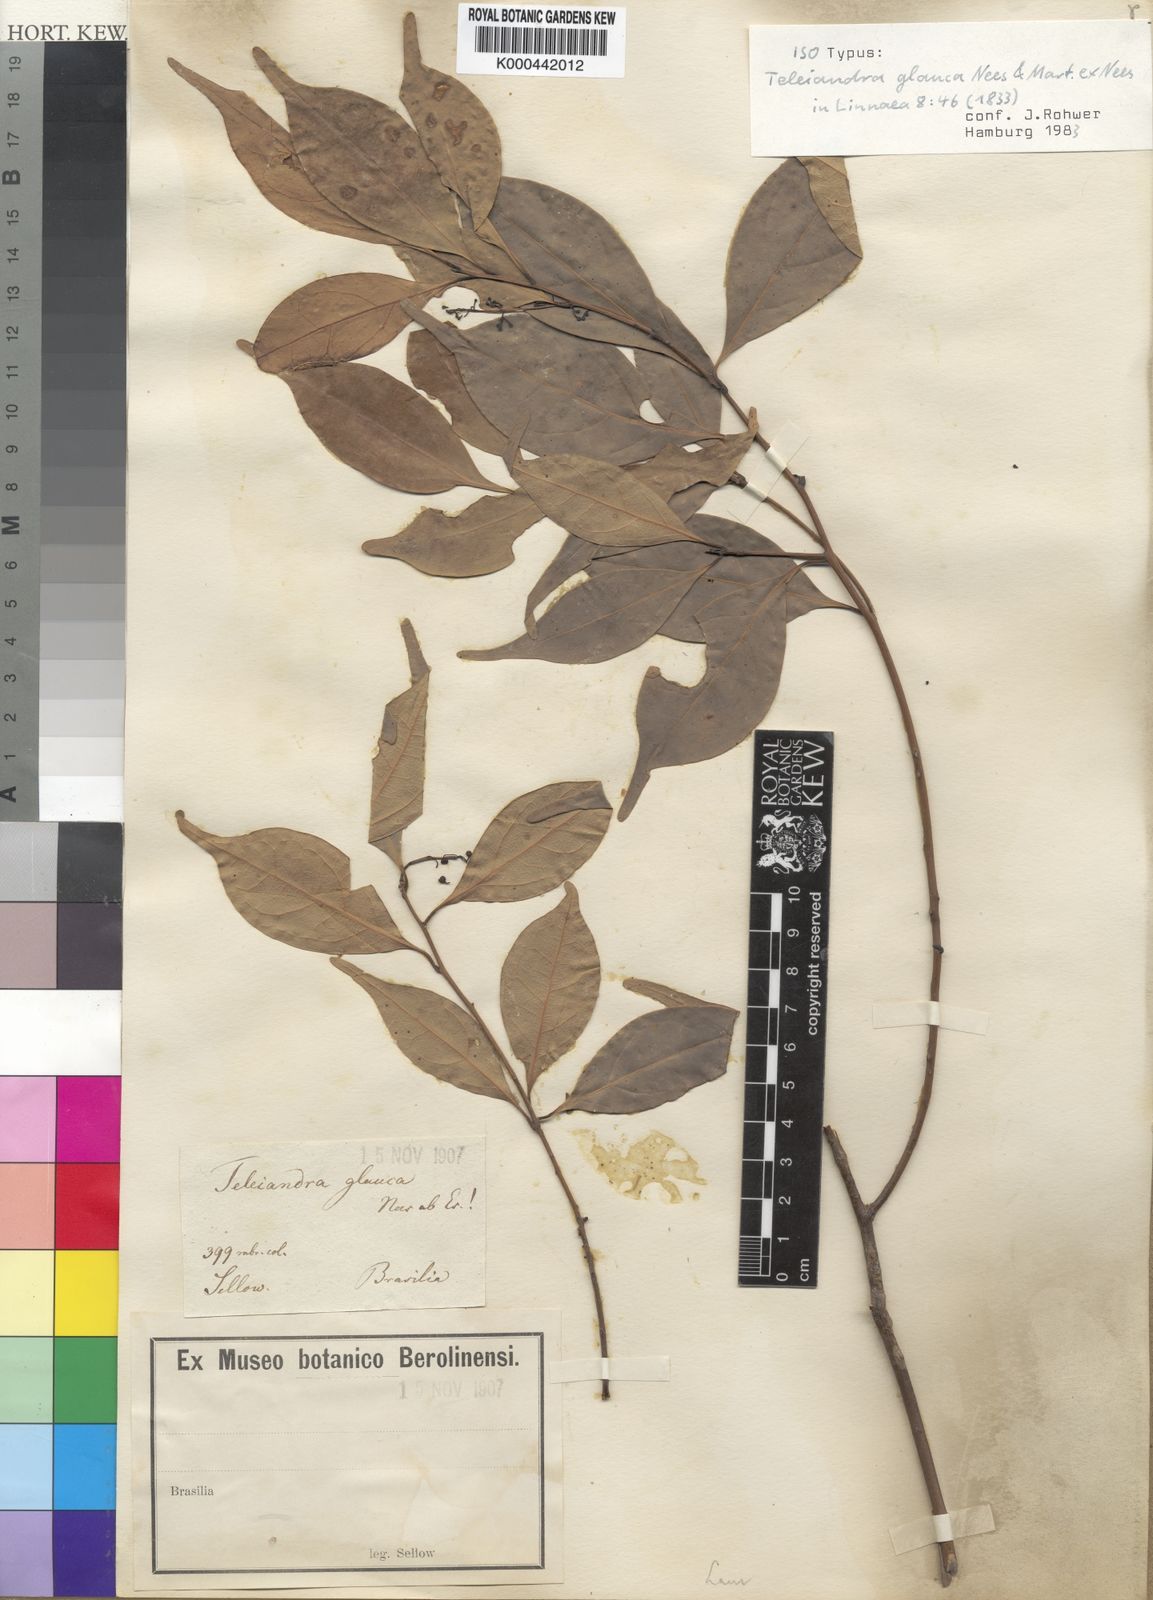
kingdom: Plantae
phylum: Tracheophyta
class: Magnoliopsida
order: Laurales
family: Lauraceae
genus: Ocotea
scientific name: Ocotea teleiandra
